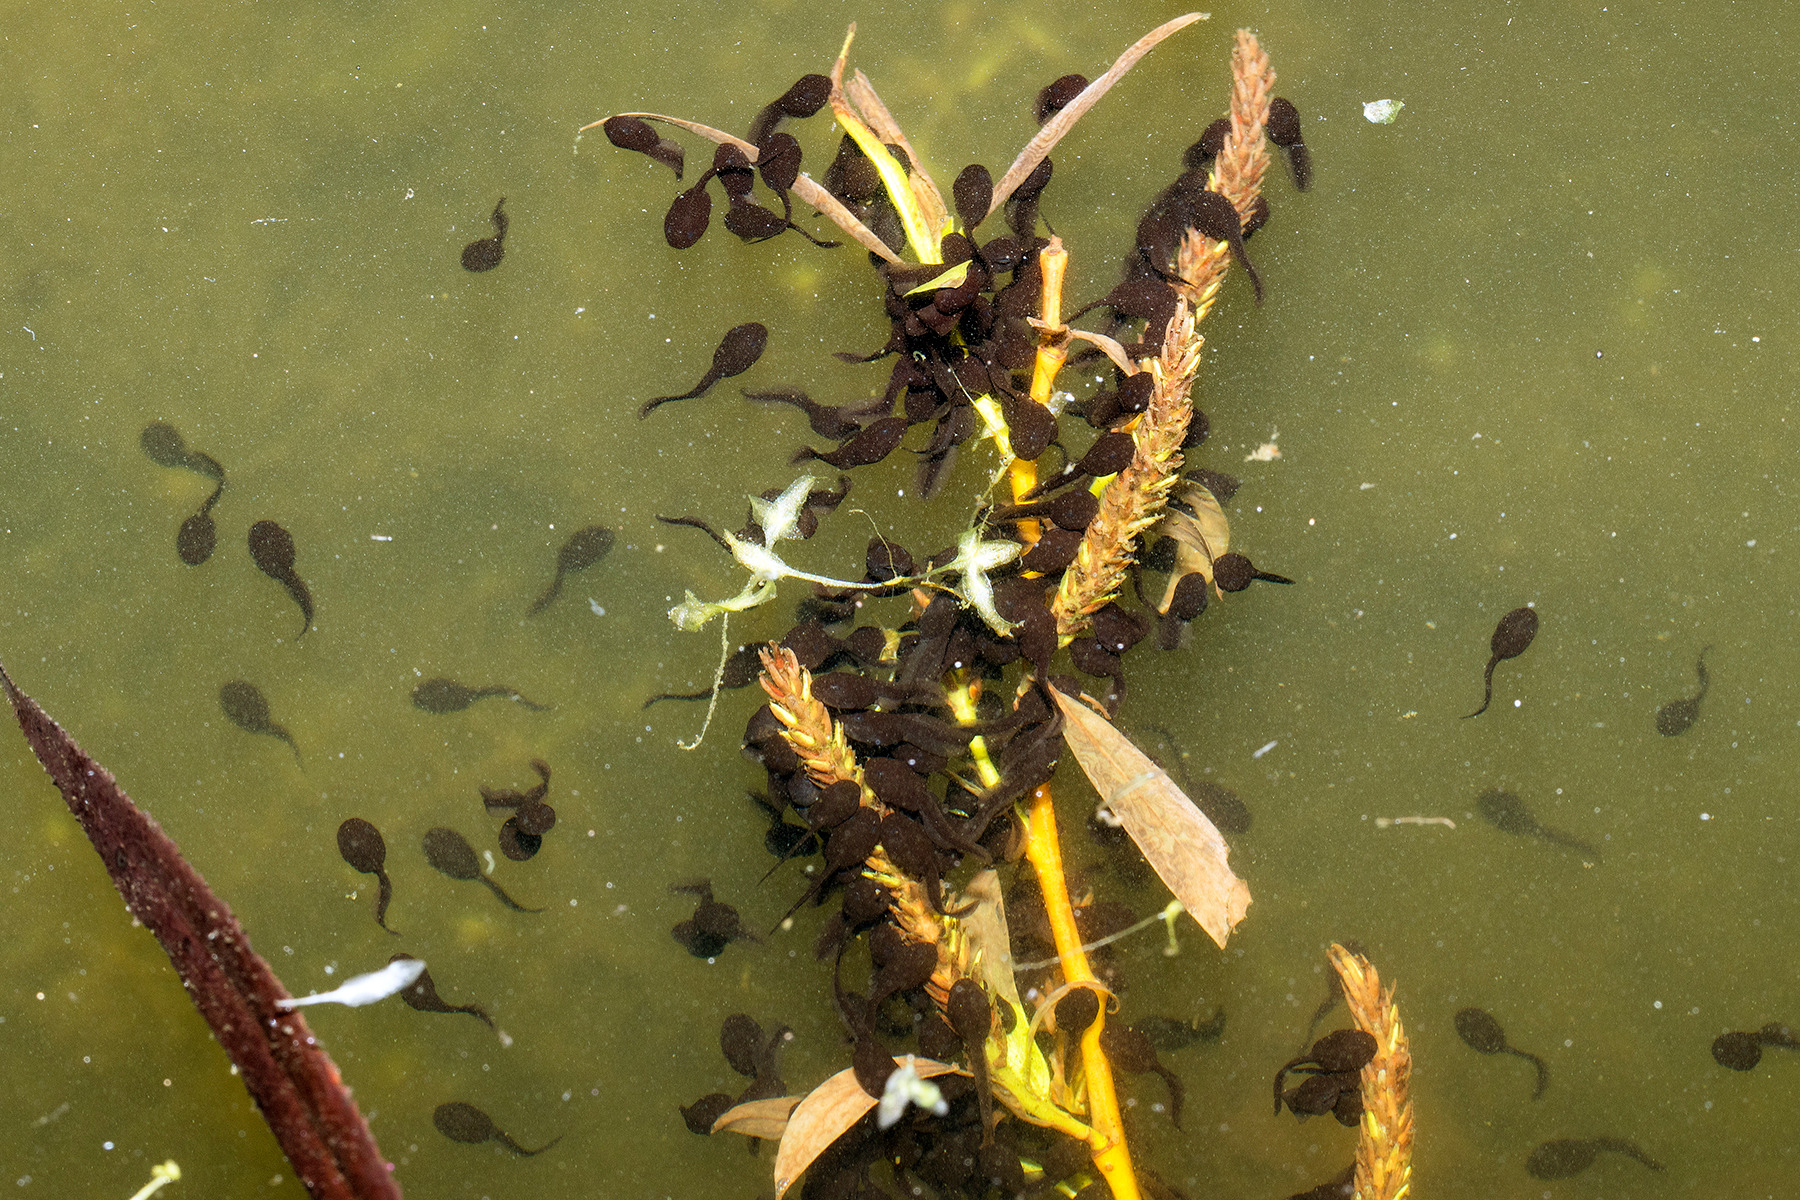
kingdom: Animalia
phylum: Chordata
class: Amphibia
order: Anura
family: Bufonidae
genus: Bufo
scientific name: Bufo bufo
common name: Skrubtudse
